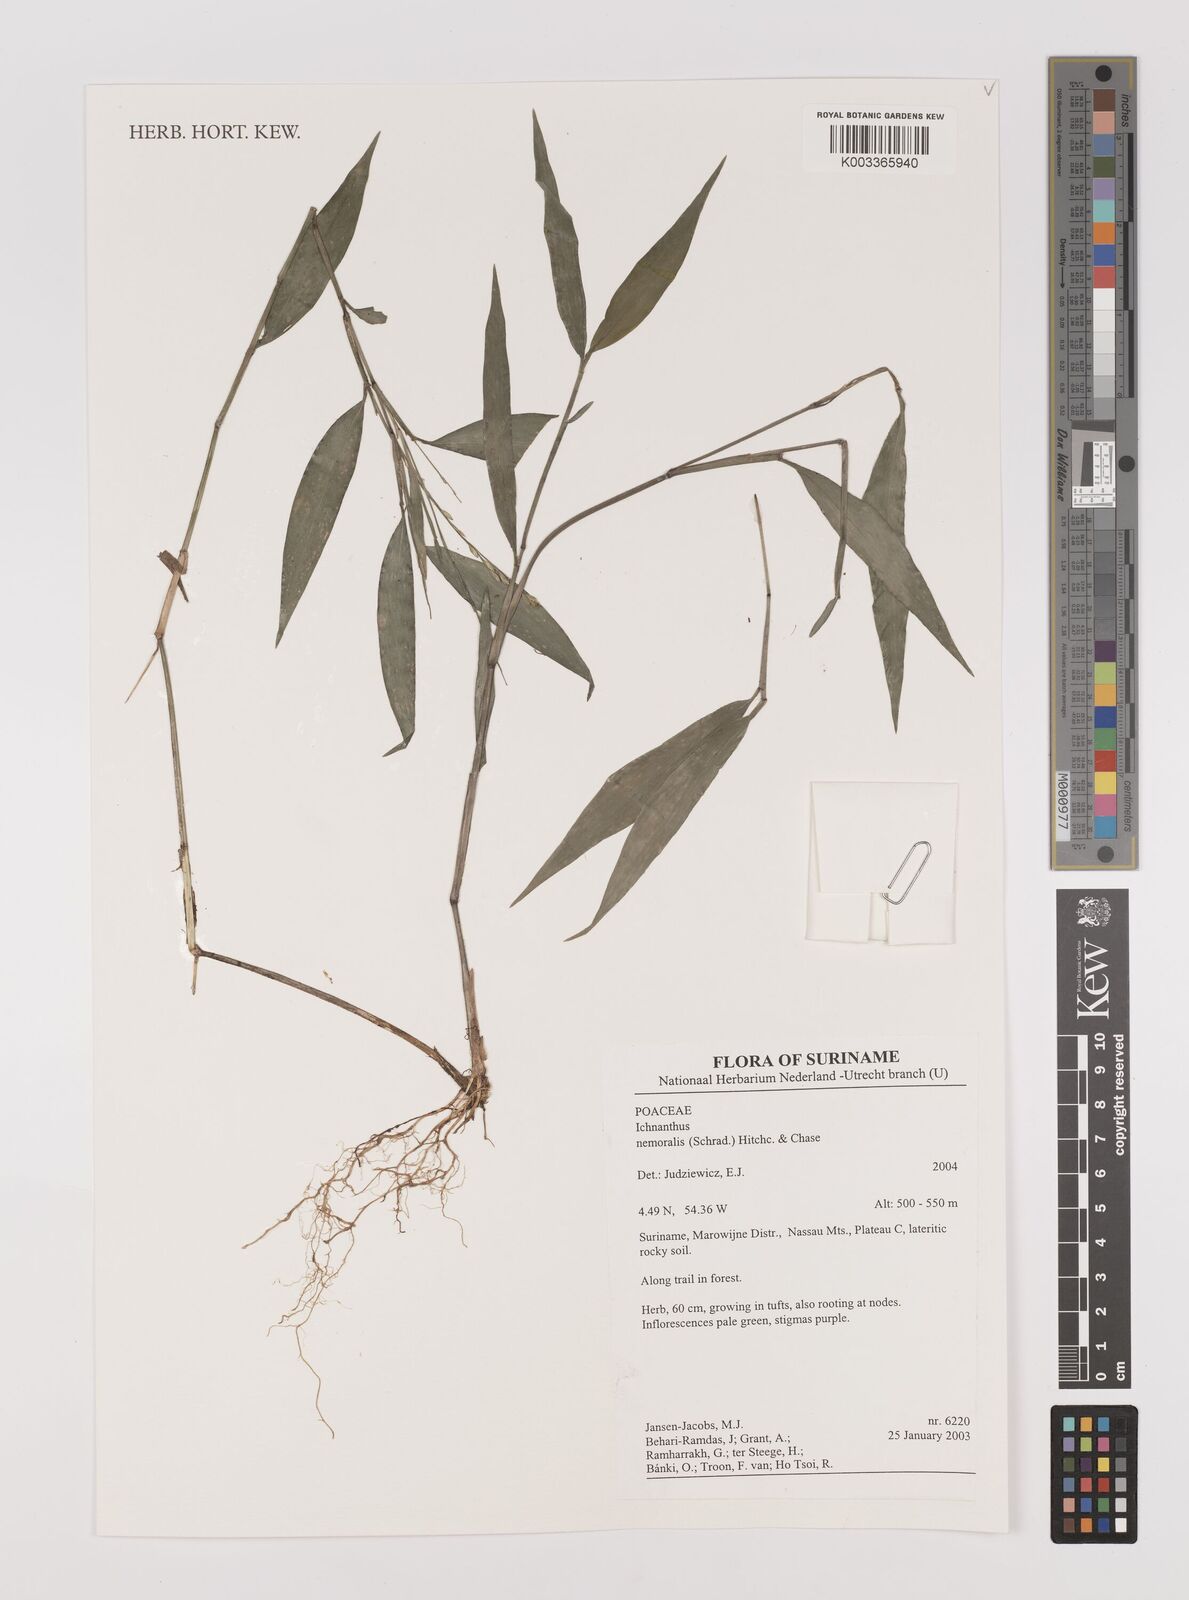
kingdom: Plantae
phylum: Tracheophyta
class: Liliopsida
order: Poales
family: Poaceae
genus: Ichnanthus
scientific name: Ichnanthus nemoralis
